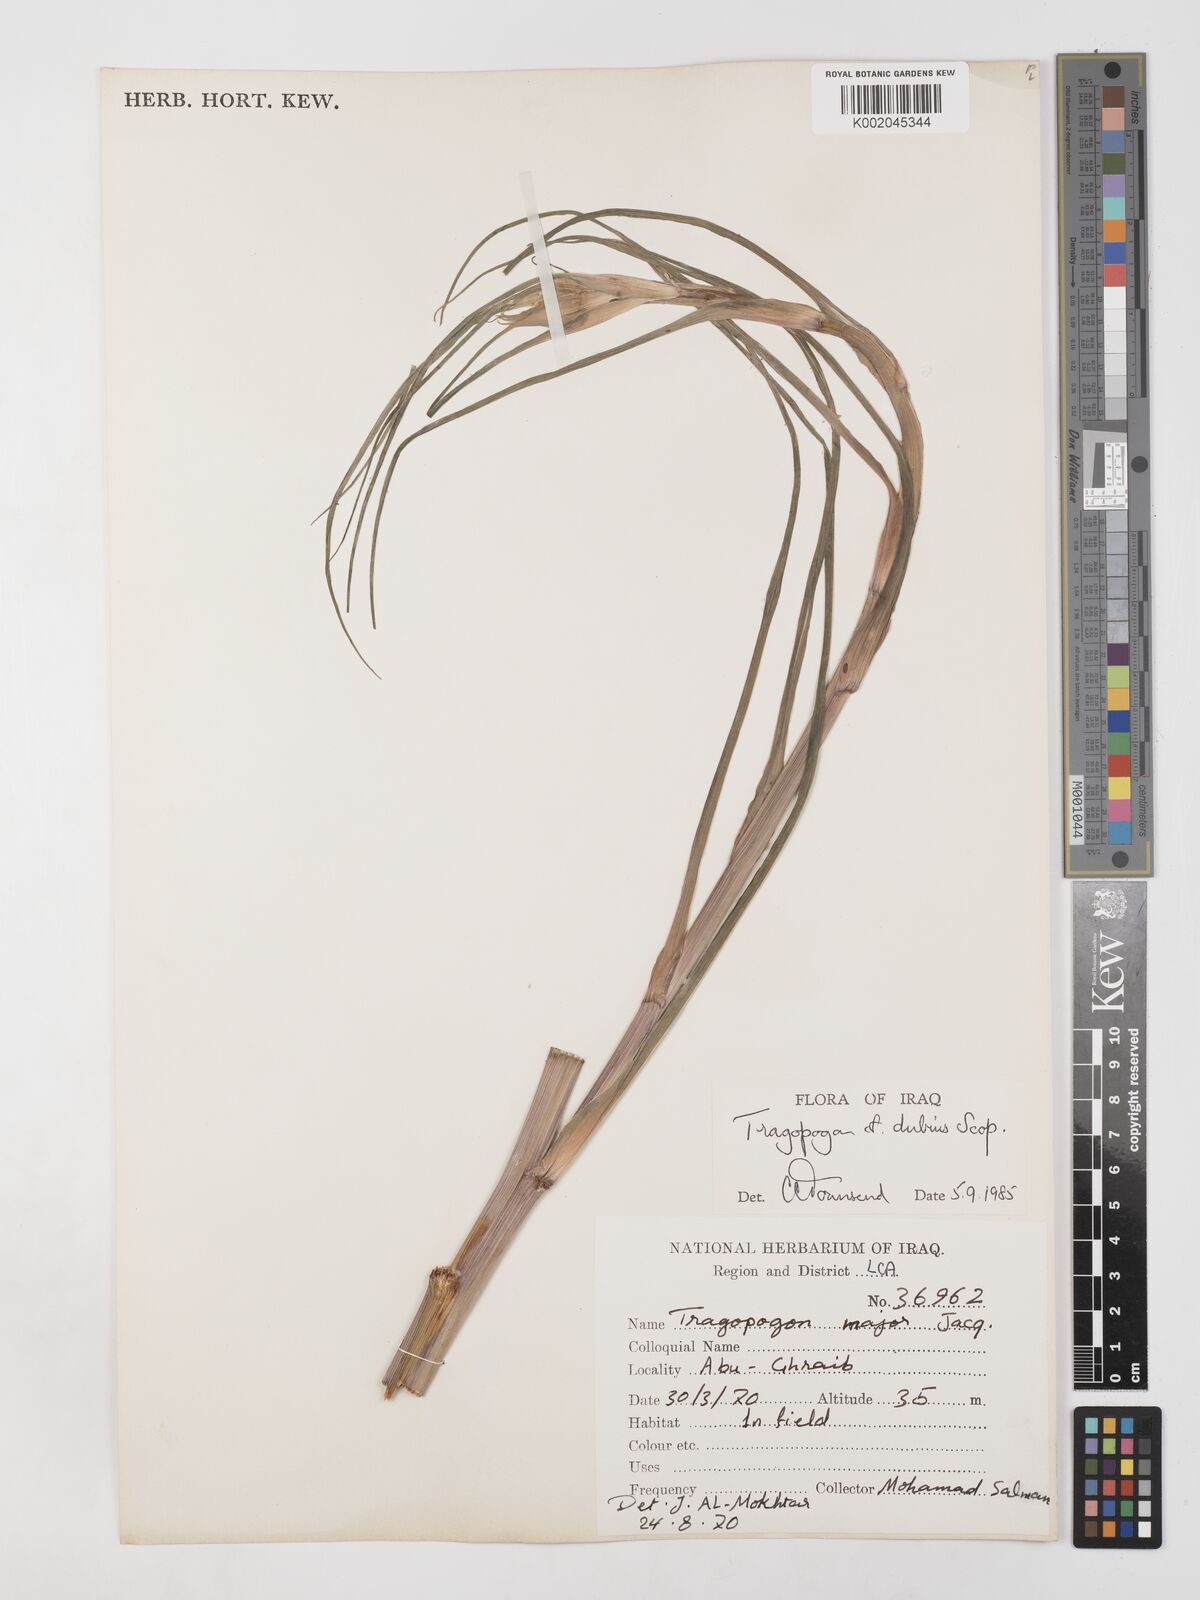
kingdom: Plantae
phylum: Tracheophyta
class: Magnoliopsida
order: Asterales
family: Asteraceae
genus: Tragopogon
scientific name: Tragopogon dubius
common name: Yellow salsify
